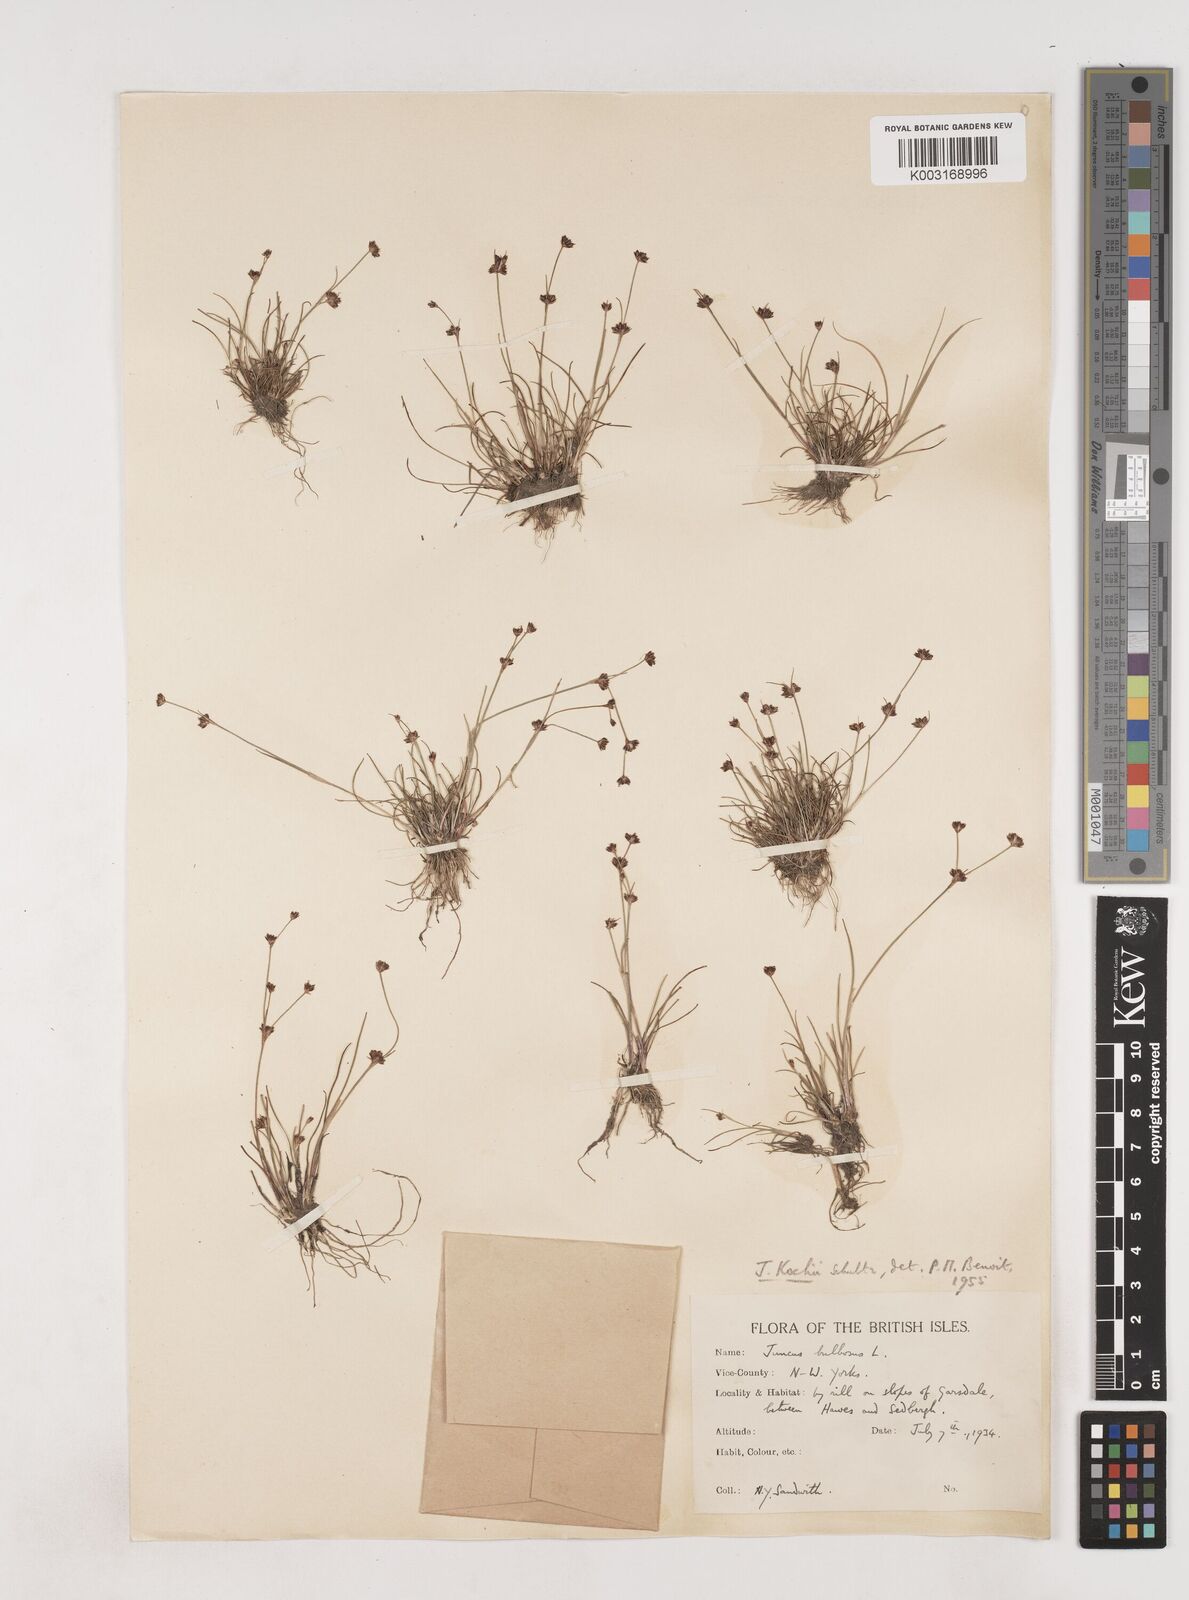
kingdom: Plantae
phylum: Tracheophyta
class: Liliopsida
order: Poales
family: Juncaceae
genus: Juncus
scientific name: Juncus bulbosus
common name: Bulbous rush
